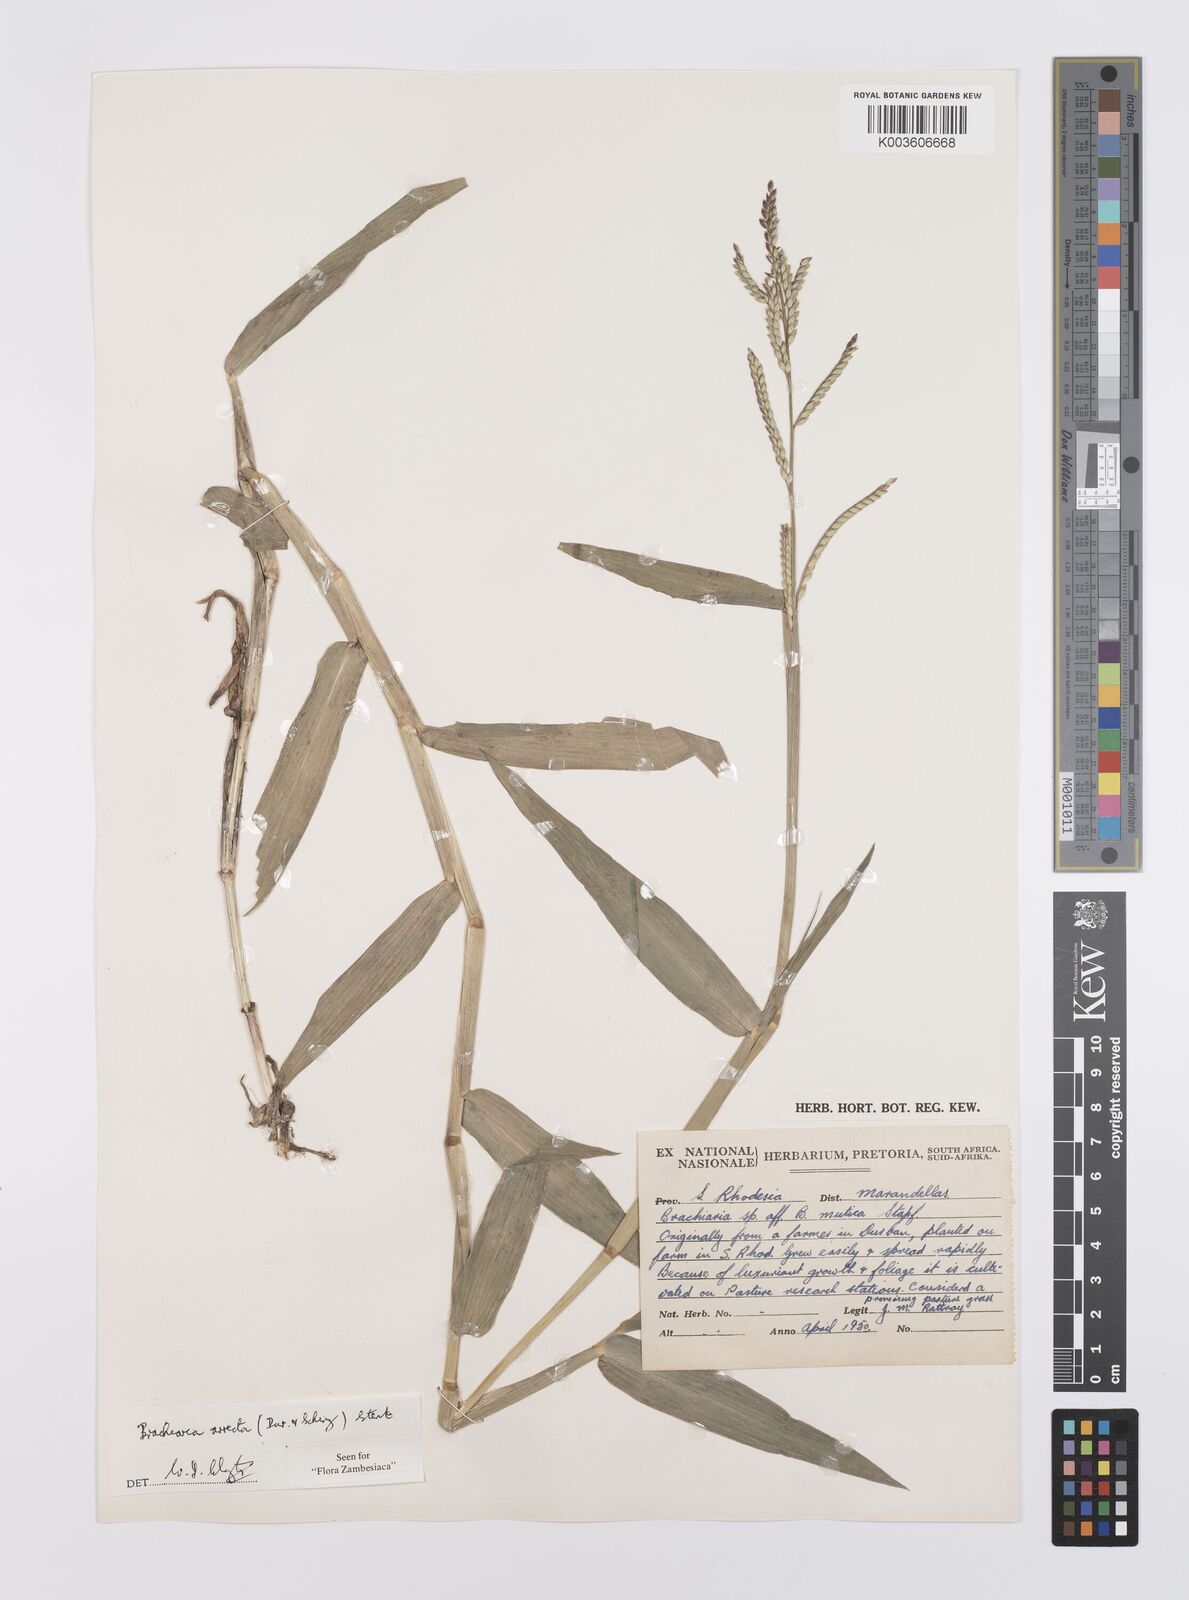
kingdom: Plantae
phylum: Tracheophyta
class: Liliopsida
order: Poales
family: Poaceae
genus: Urochloa
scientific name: Urochloa arrecta
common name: African signalgrass
